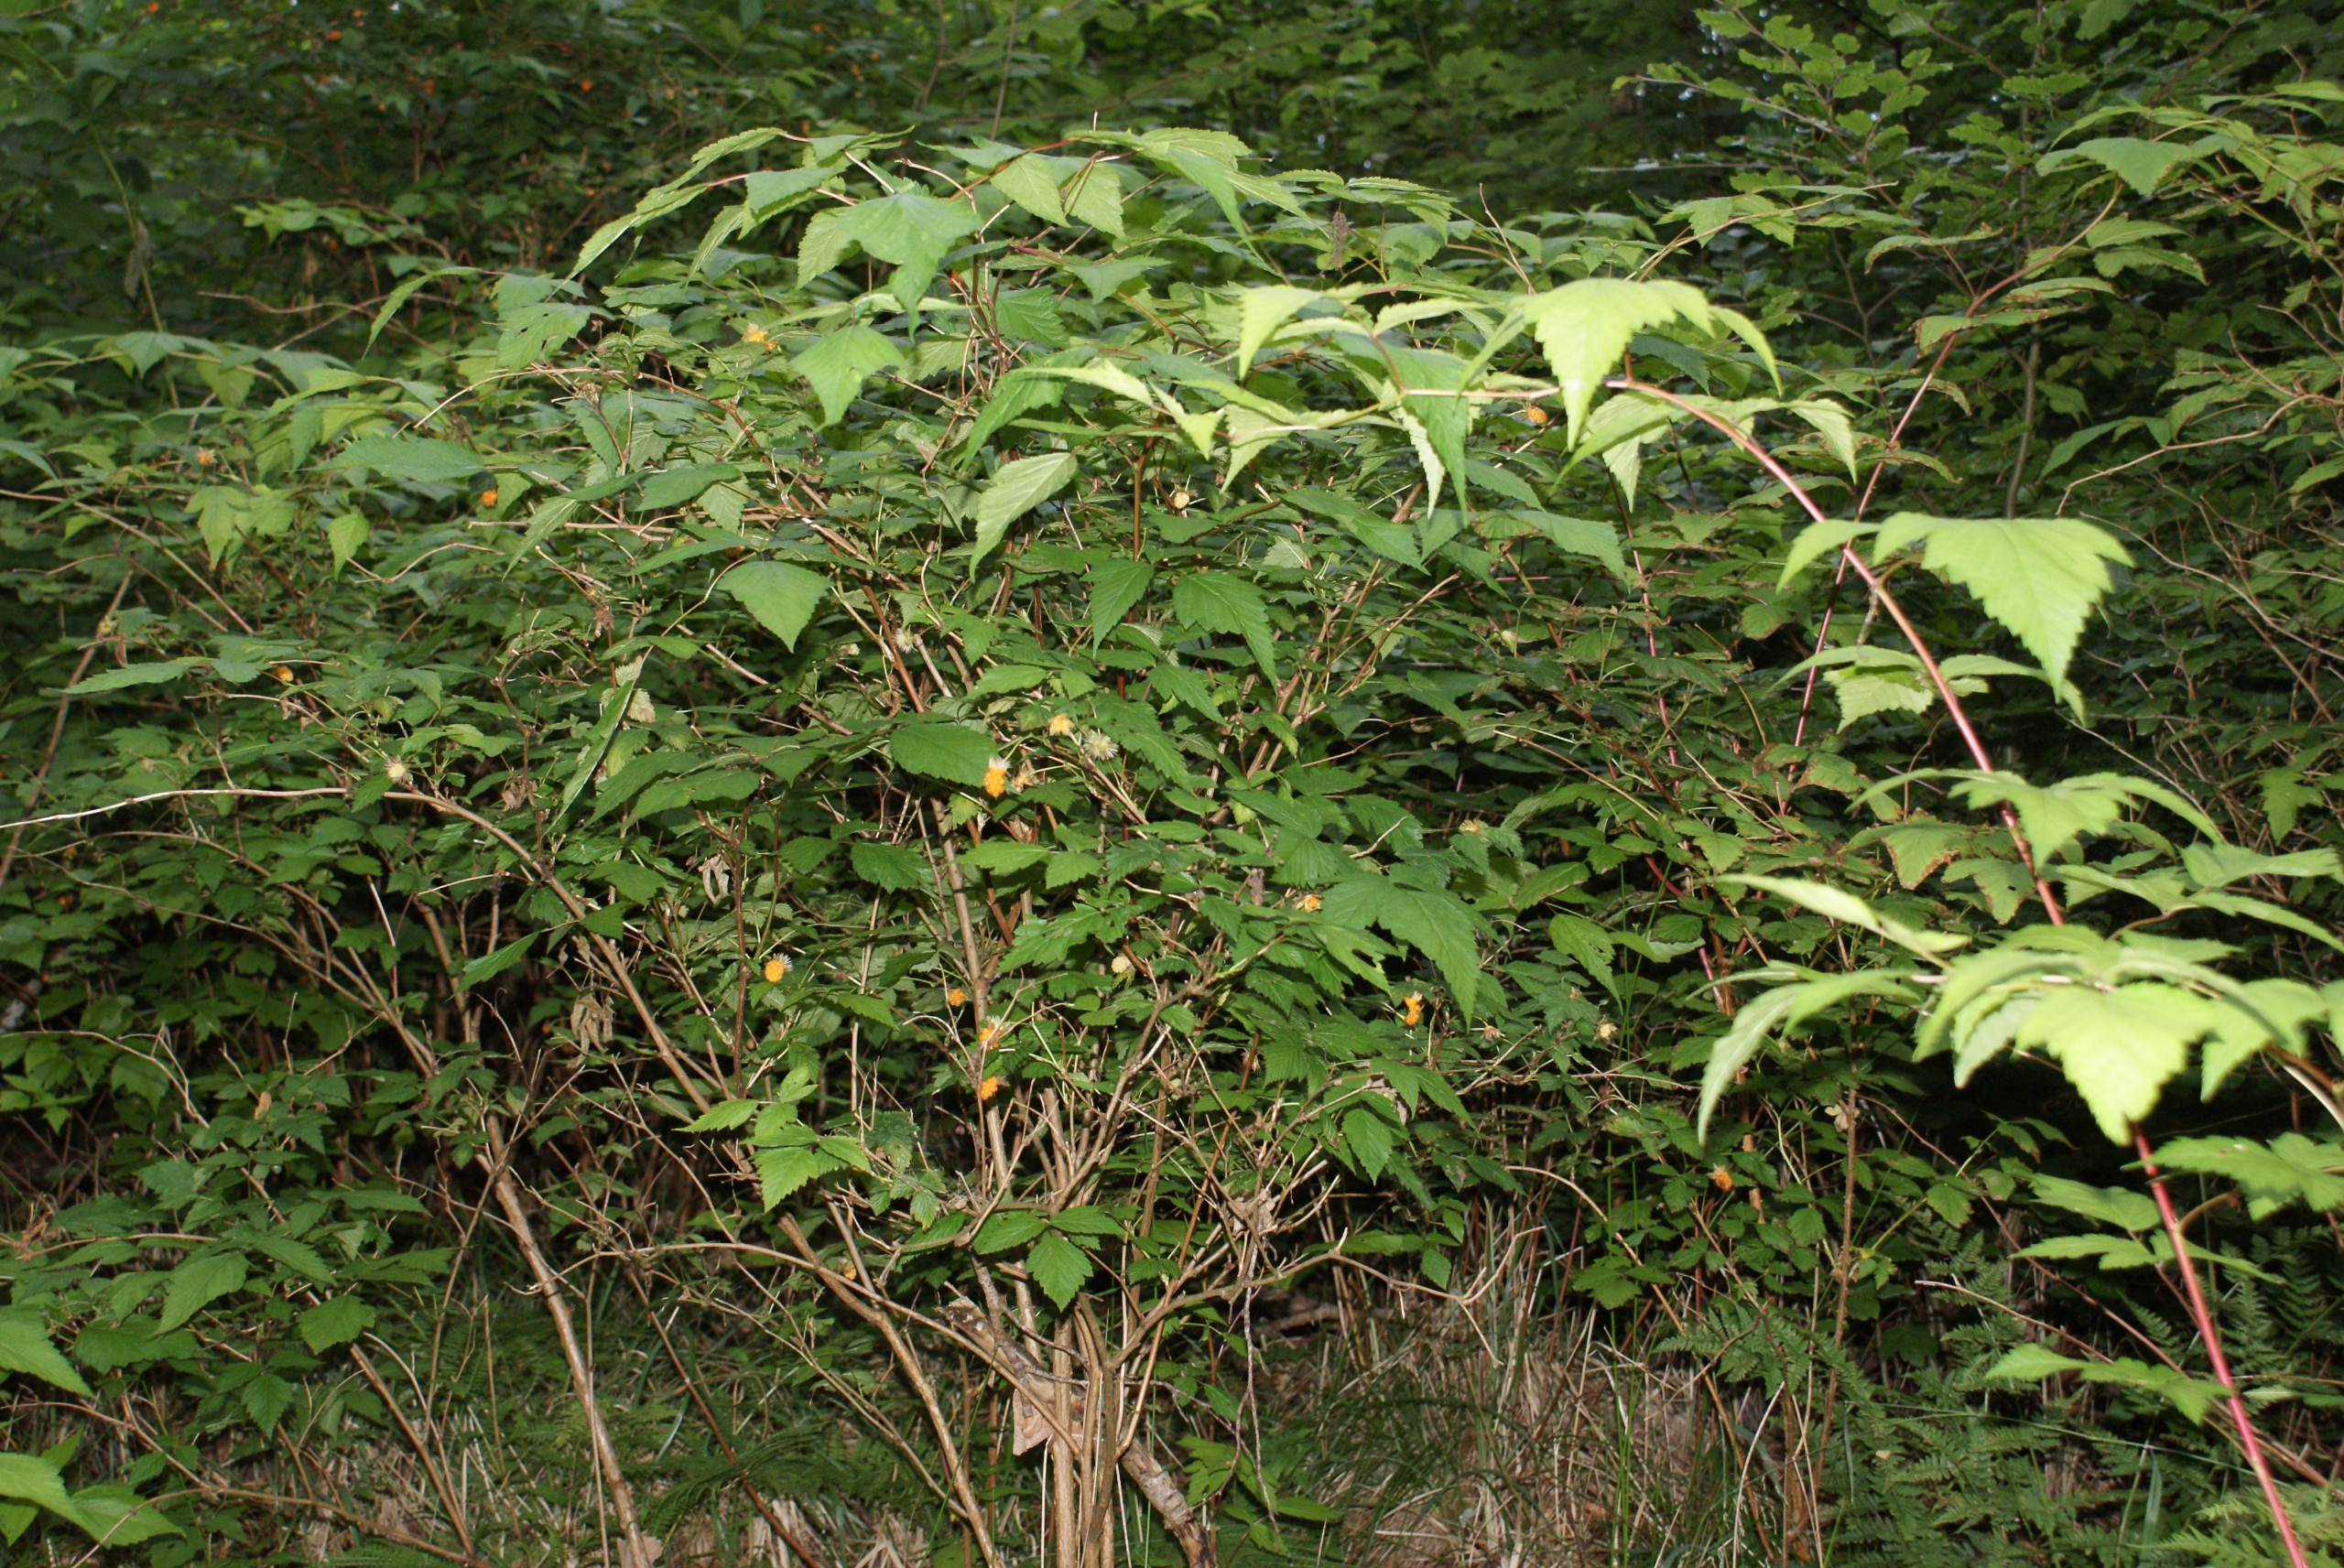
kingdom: Plantae
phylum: Tracheophyta
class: Magnoliopsida
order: Rosales
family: Rosaceae
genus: Rubus
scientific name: Rubus spectabilis
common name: Laksebær
